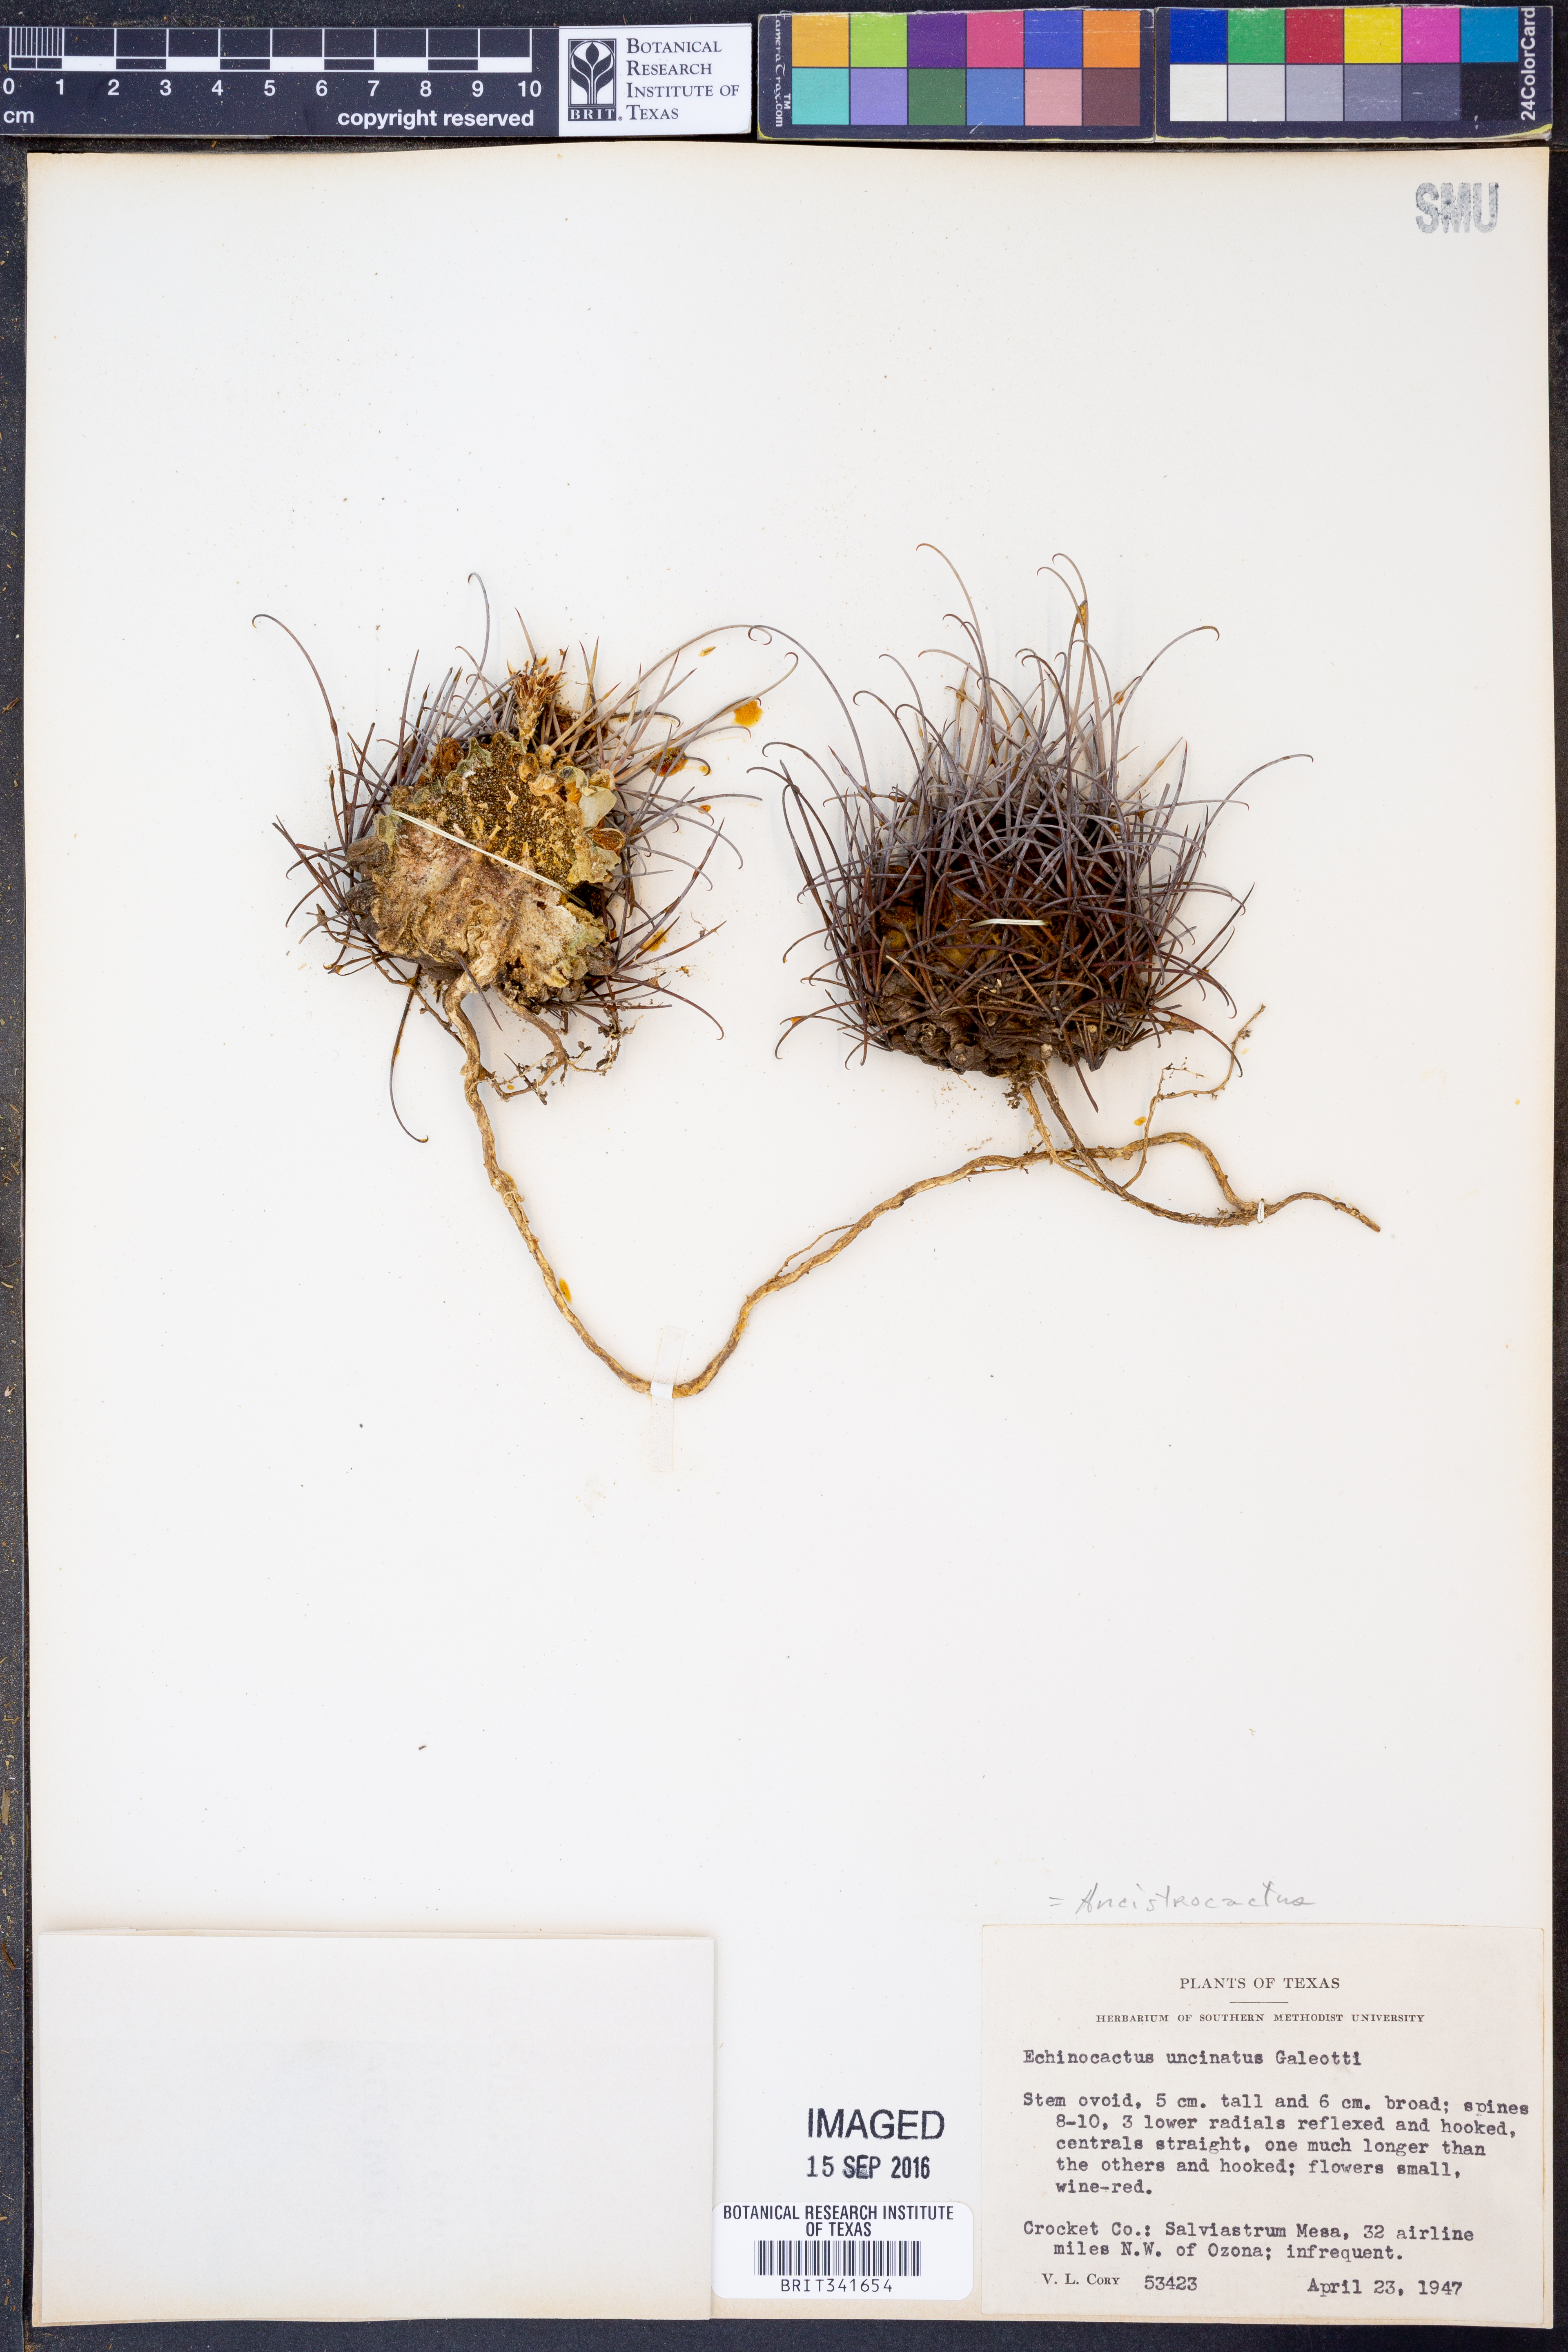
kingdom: Plantae
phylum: Tracheophyta
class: Magnoliopsida
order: Caryophyllales
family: Cactaceae
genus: Ferocactus
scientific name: Ferocactus uncinatus
